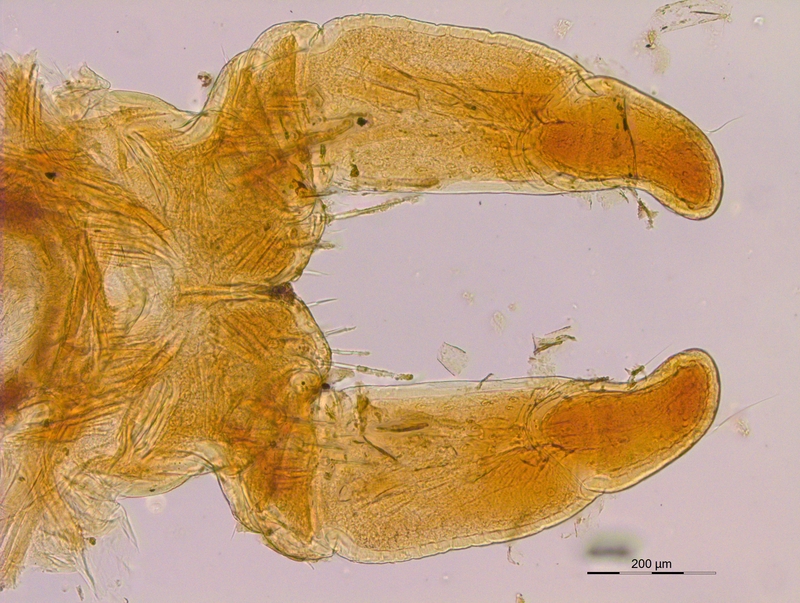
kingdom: Animalia
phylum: Arthropoda
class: Diplopoda
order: Julida
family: Mongoliulidae
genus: Skleroprotopus
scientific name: Skleroprotopus longiventris
